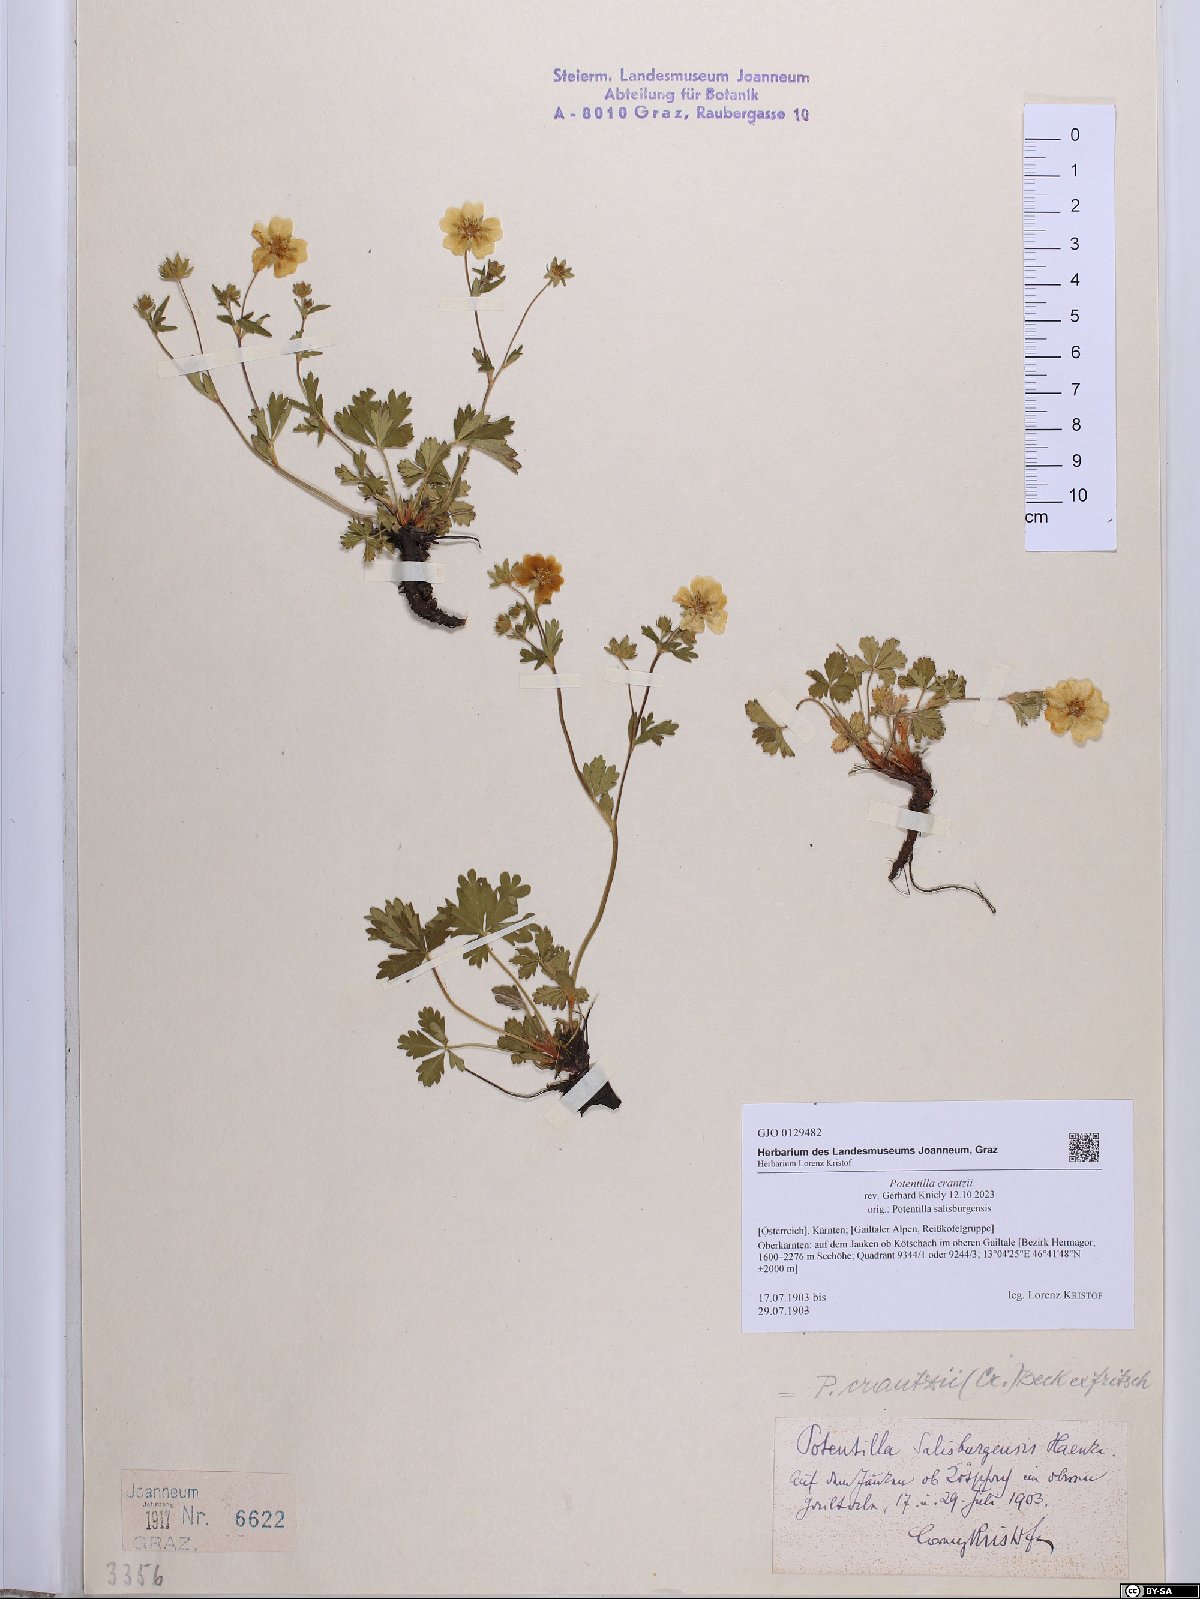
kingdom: Plantae
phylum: Tracheophyta
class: Magnoliopsida
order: Rosales
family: Rosaceae
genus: Potentilla
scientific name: Potentilla crantzii
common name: Alpine cinquefoil
